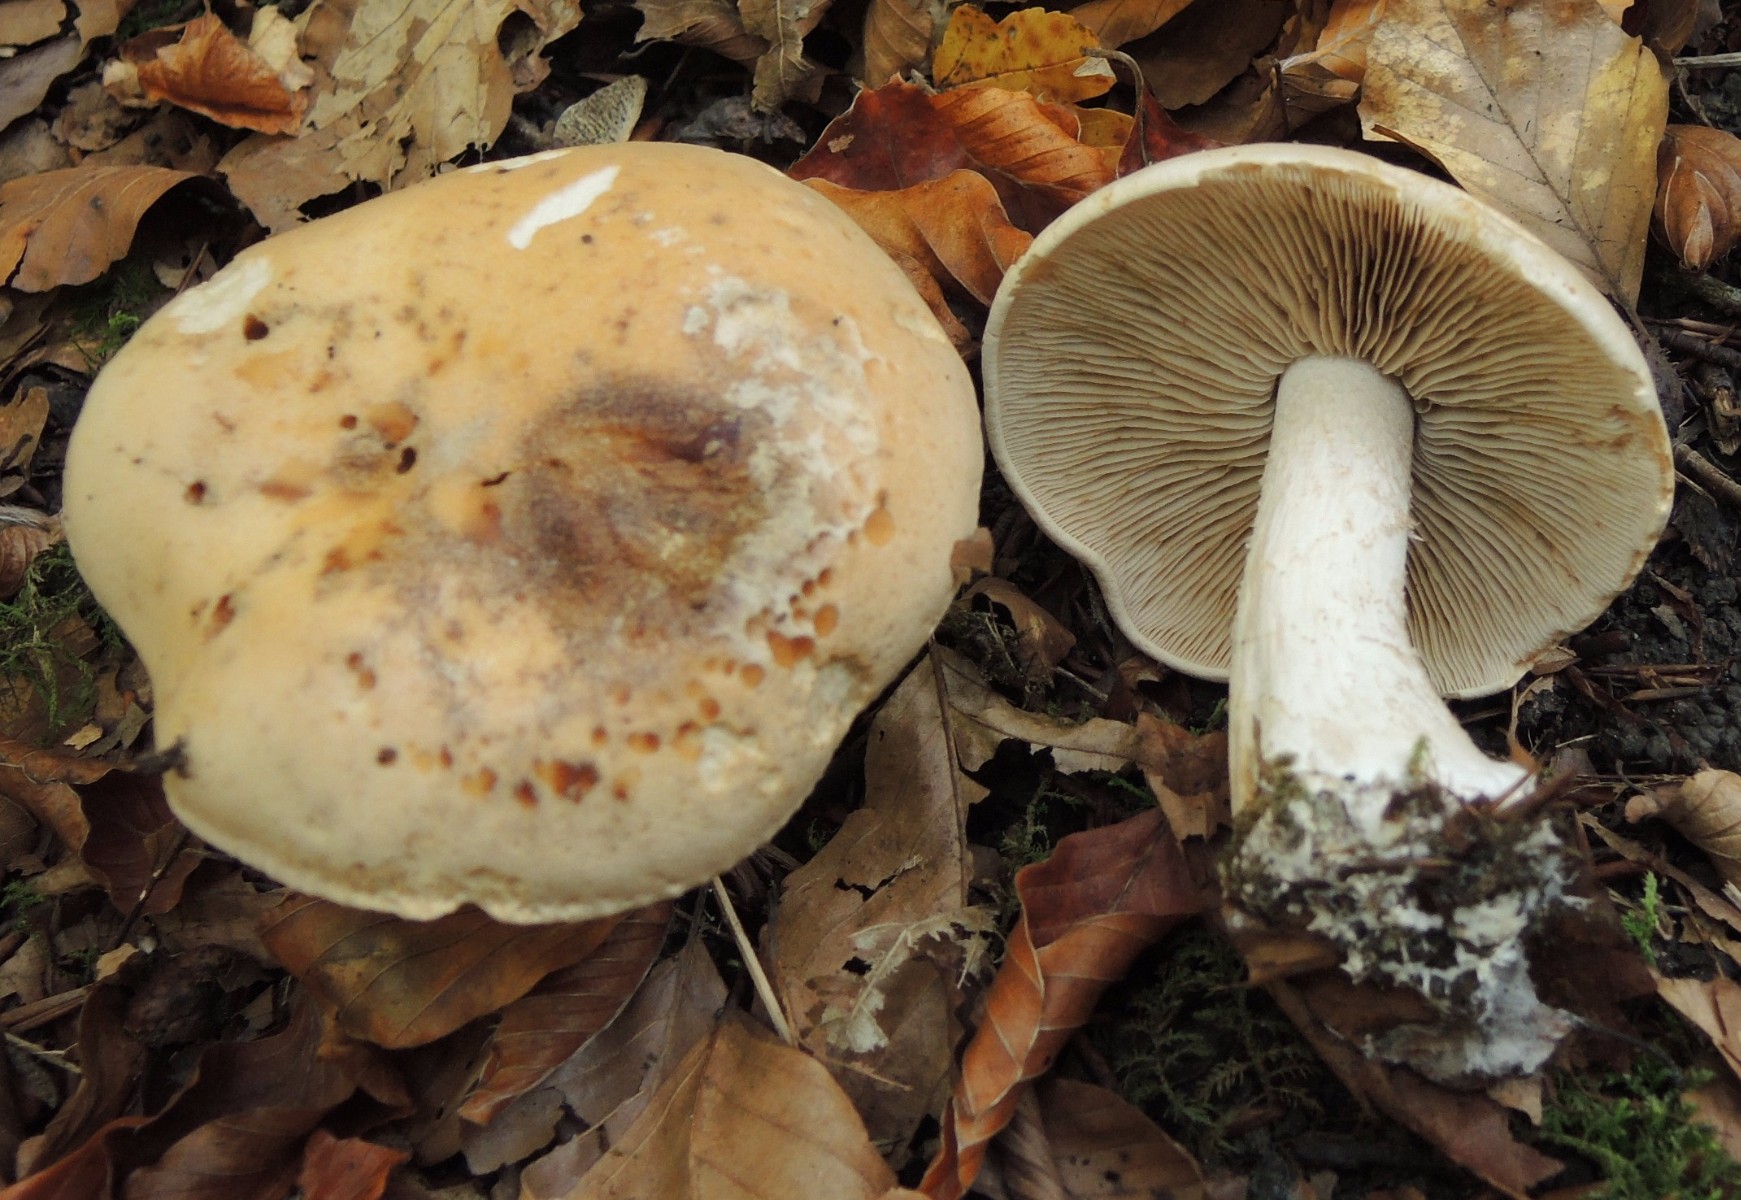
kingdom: Fungi
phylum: Basidiomycota
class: Agaricomycetes
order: Agaricales
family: Hymenogastraceae
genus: Hebeloma
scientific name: Hebeloma sinapizans
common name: ræddike-tåreblad
